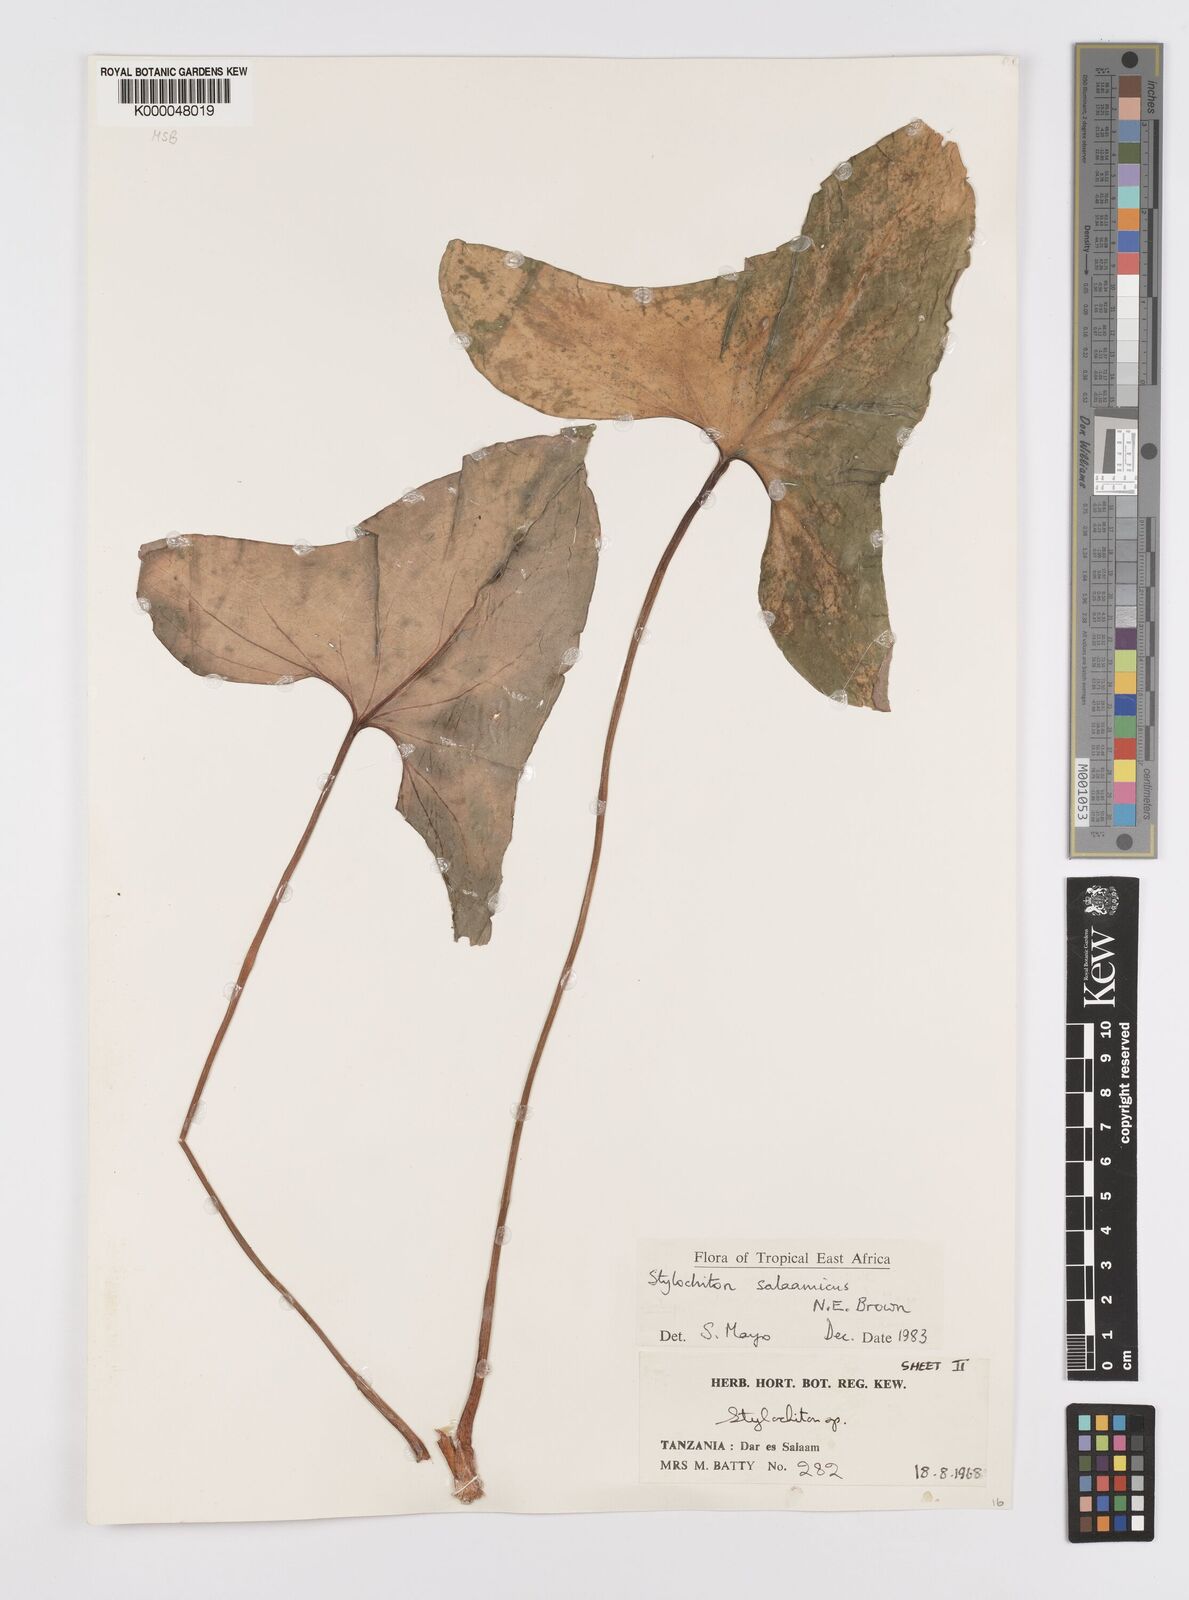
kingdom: Plantae
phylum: Tracheophyta
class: Liliopsida
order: Alismatales
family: Araceae
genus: Stylochaeton
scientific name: Stylochaeton salaamicum
